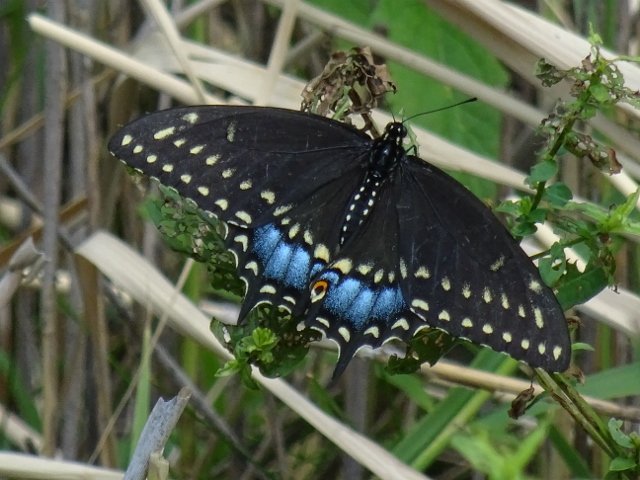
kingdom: Animalia
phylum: Arthropoda
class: Insecta
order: Lepidoptera
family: Papilionidae
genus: Papilio
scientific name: Papilio polyxenes
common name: Black Swallowtail
